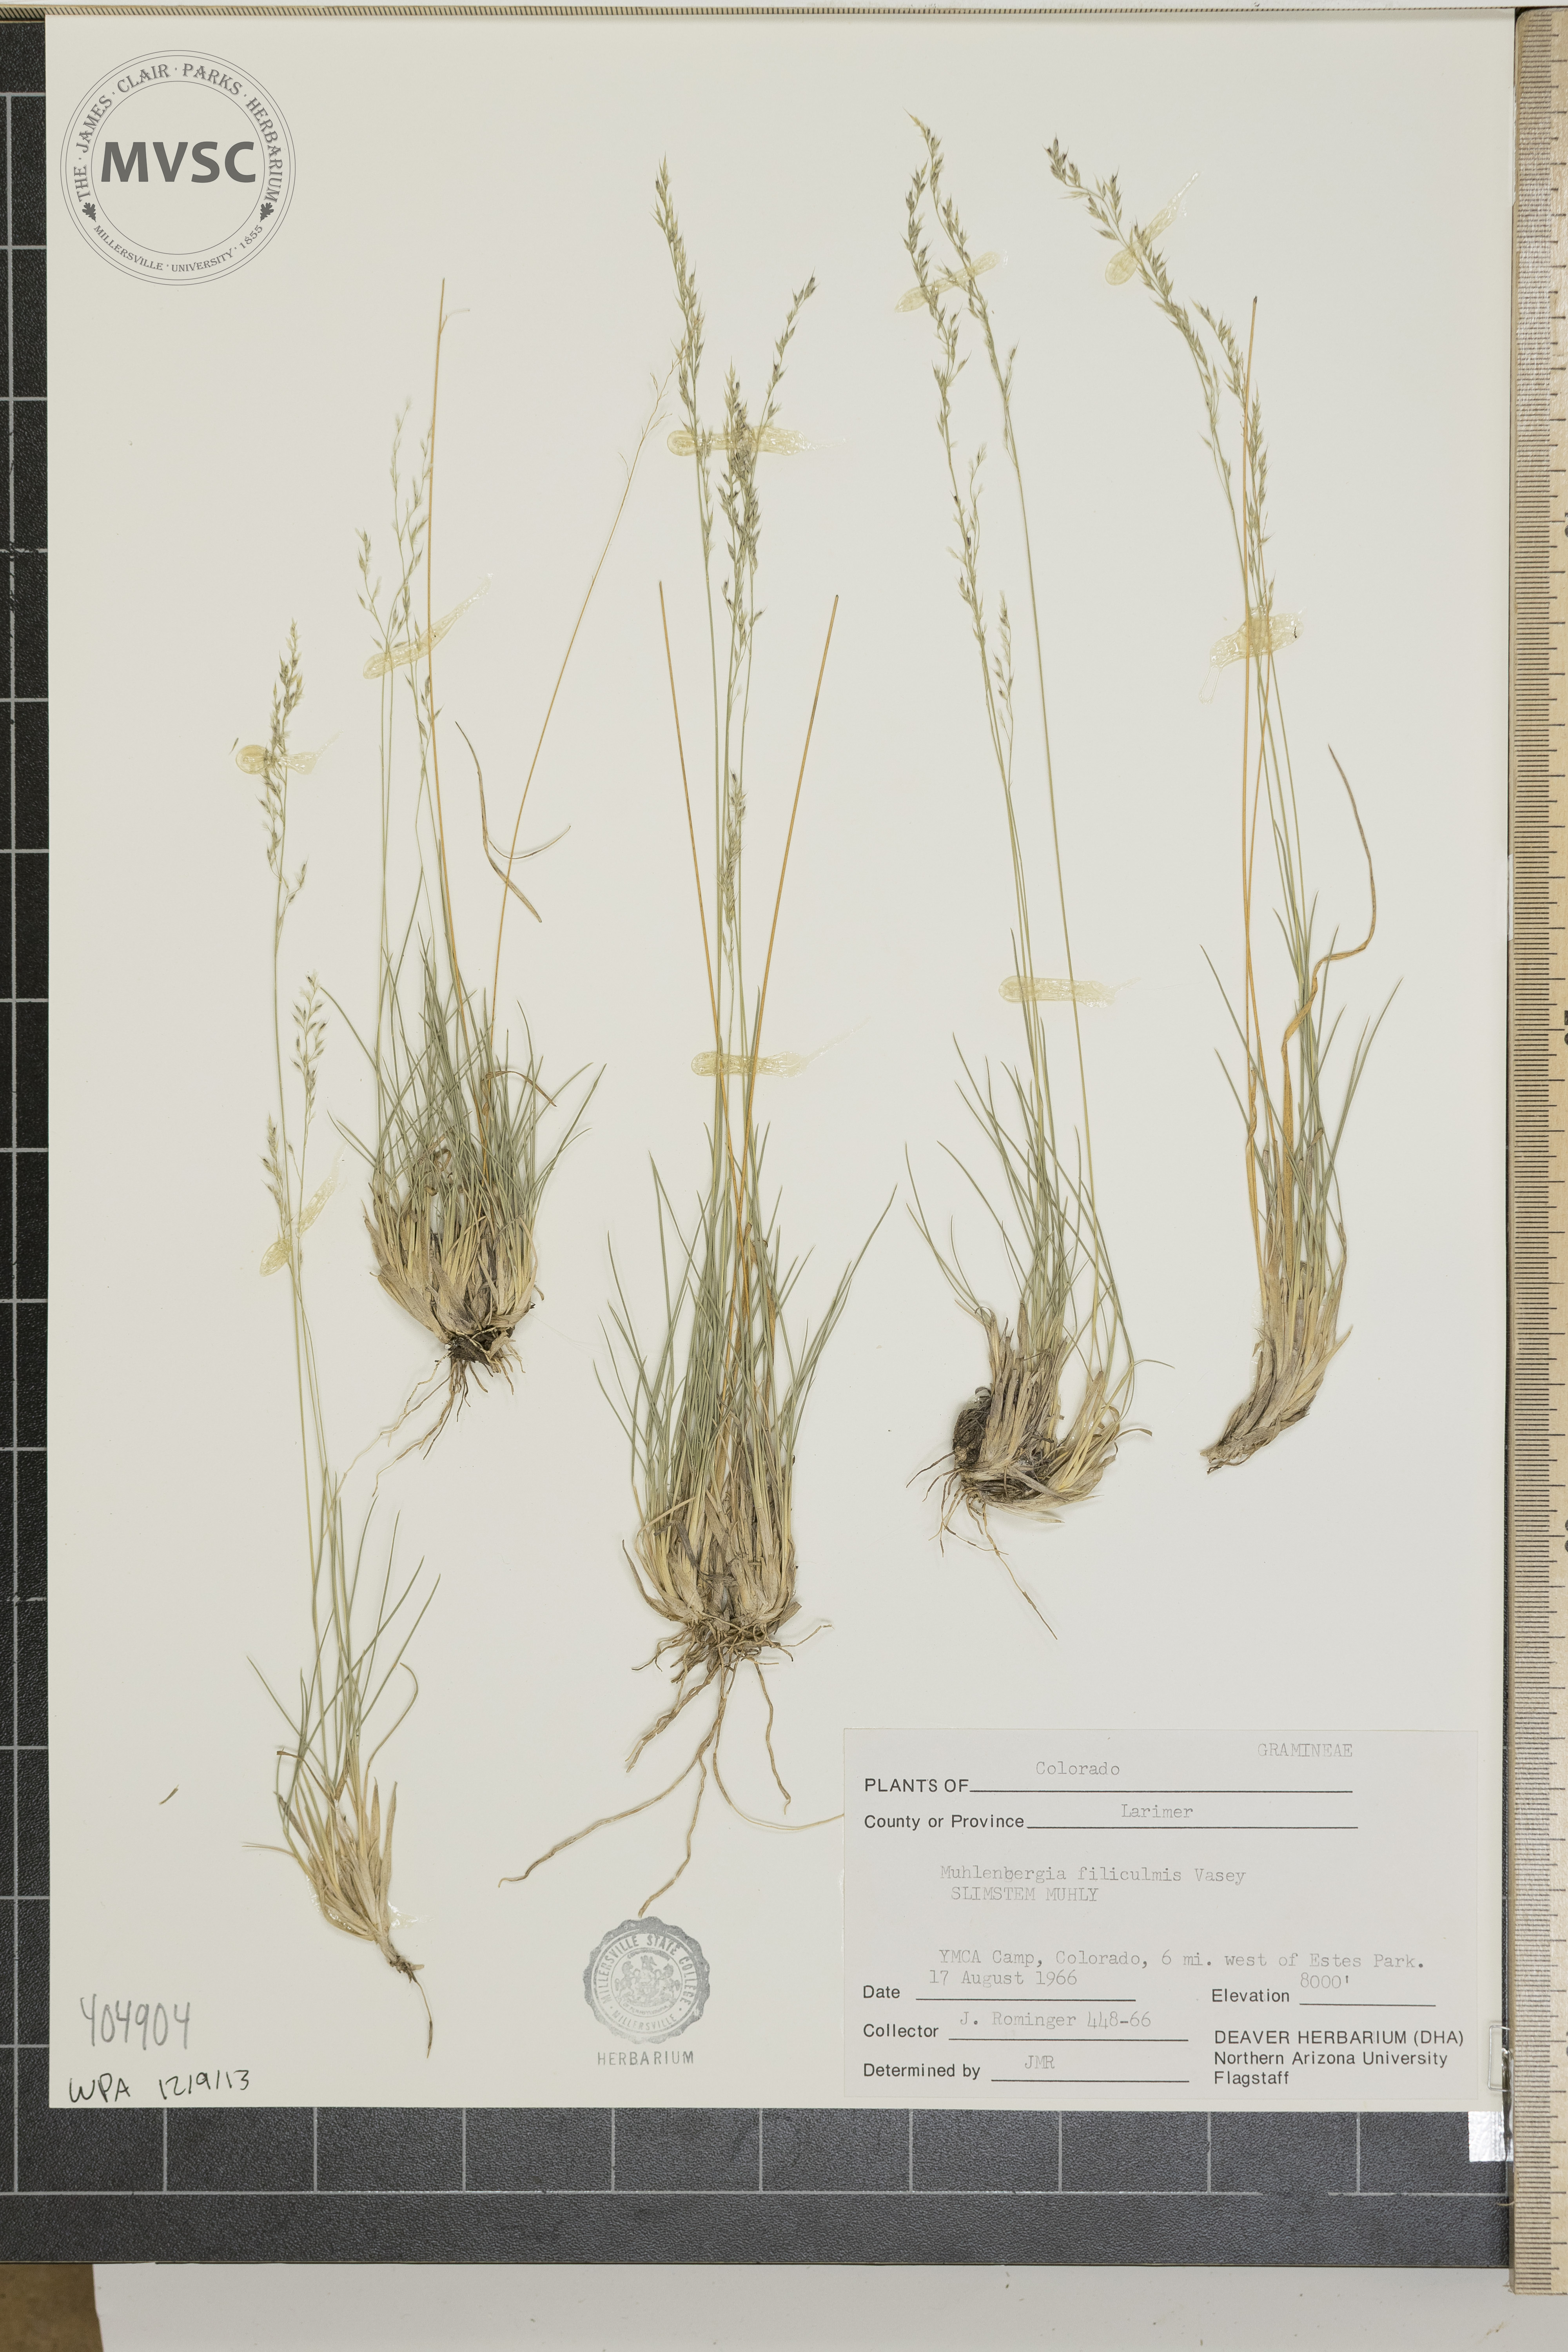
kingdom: Plantae
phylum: Tracheophyta
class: Liliopsida
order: Poales
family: Poaceae
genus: Muhlenbergia
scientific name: Muhlenbergia filiculmis
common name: Slimstem muhly
